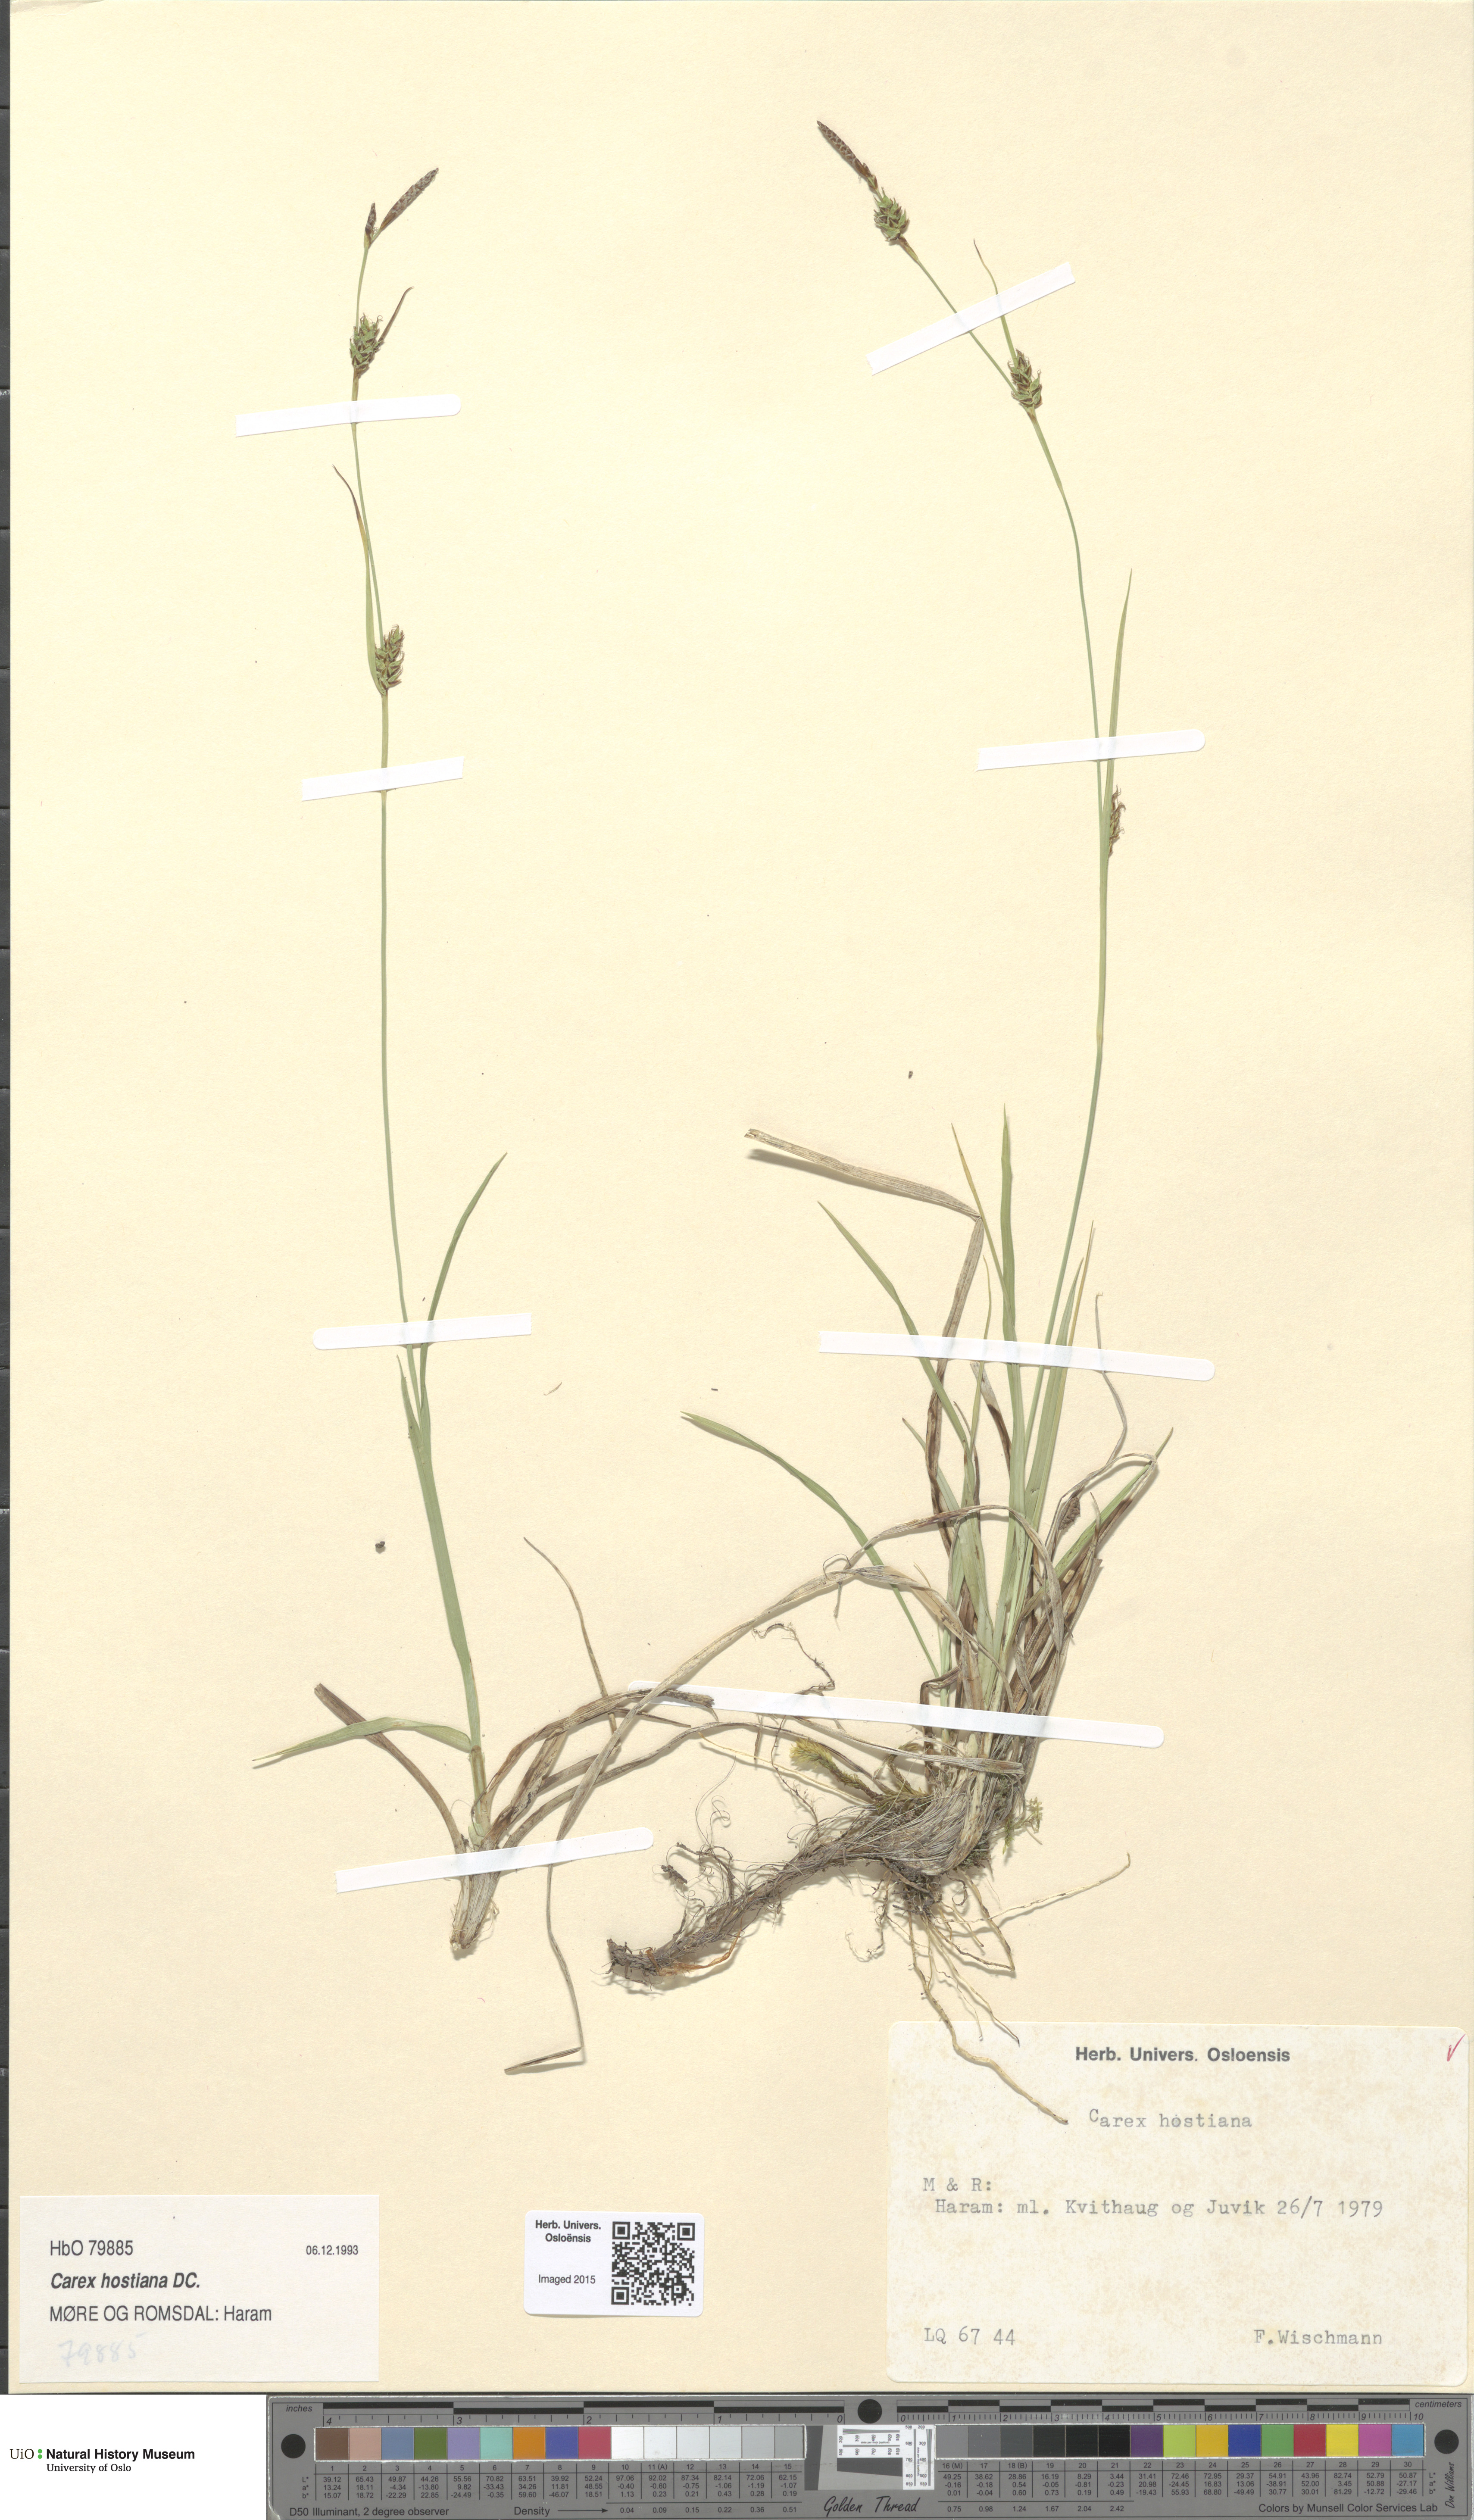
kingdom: Plantae
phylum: Tracheophyta
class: Liliopsida
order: Poales
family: Cyperaceae
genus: Carex
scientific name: Carex hostiana
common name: Tawny sedge
